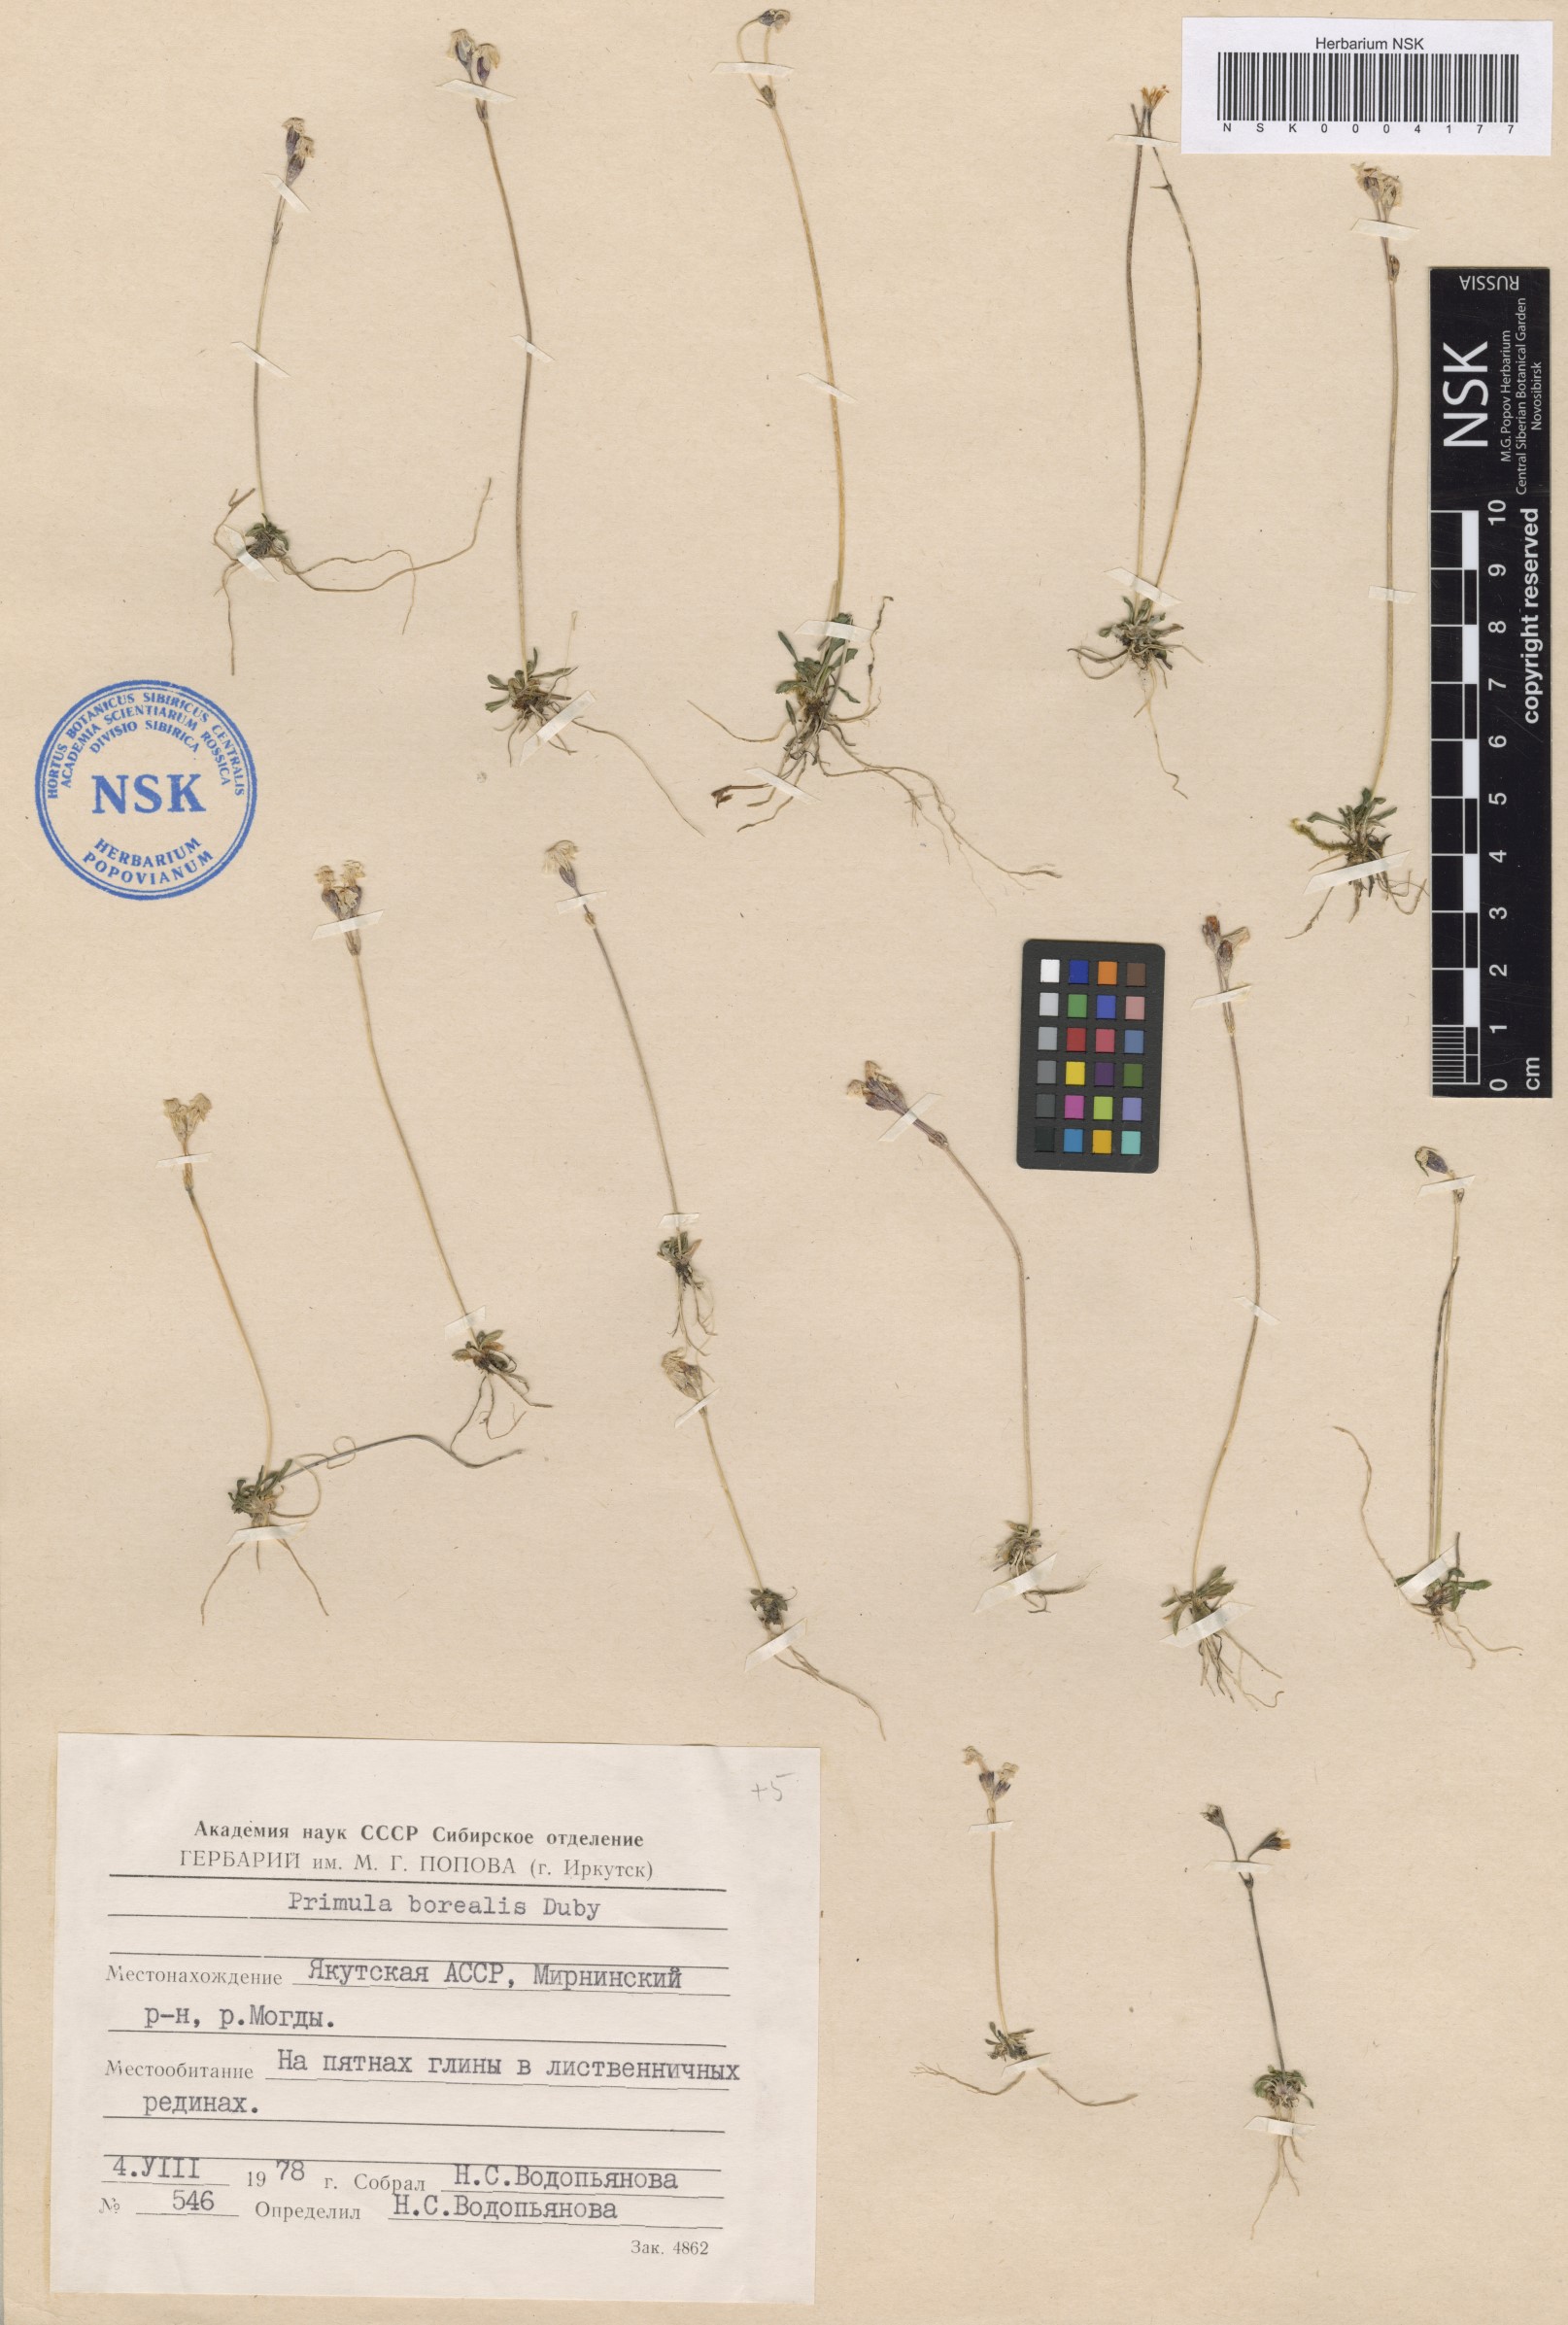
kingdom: Plantae
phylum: Tracheophyta
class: Magnoliopsida
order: Ericales
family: Primulaceae
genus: Primula
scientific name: Primula borealis
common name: Northern primrose
